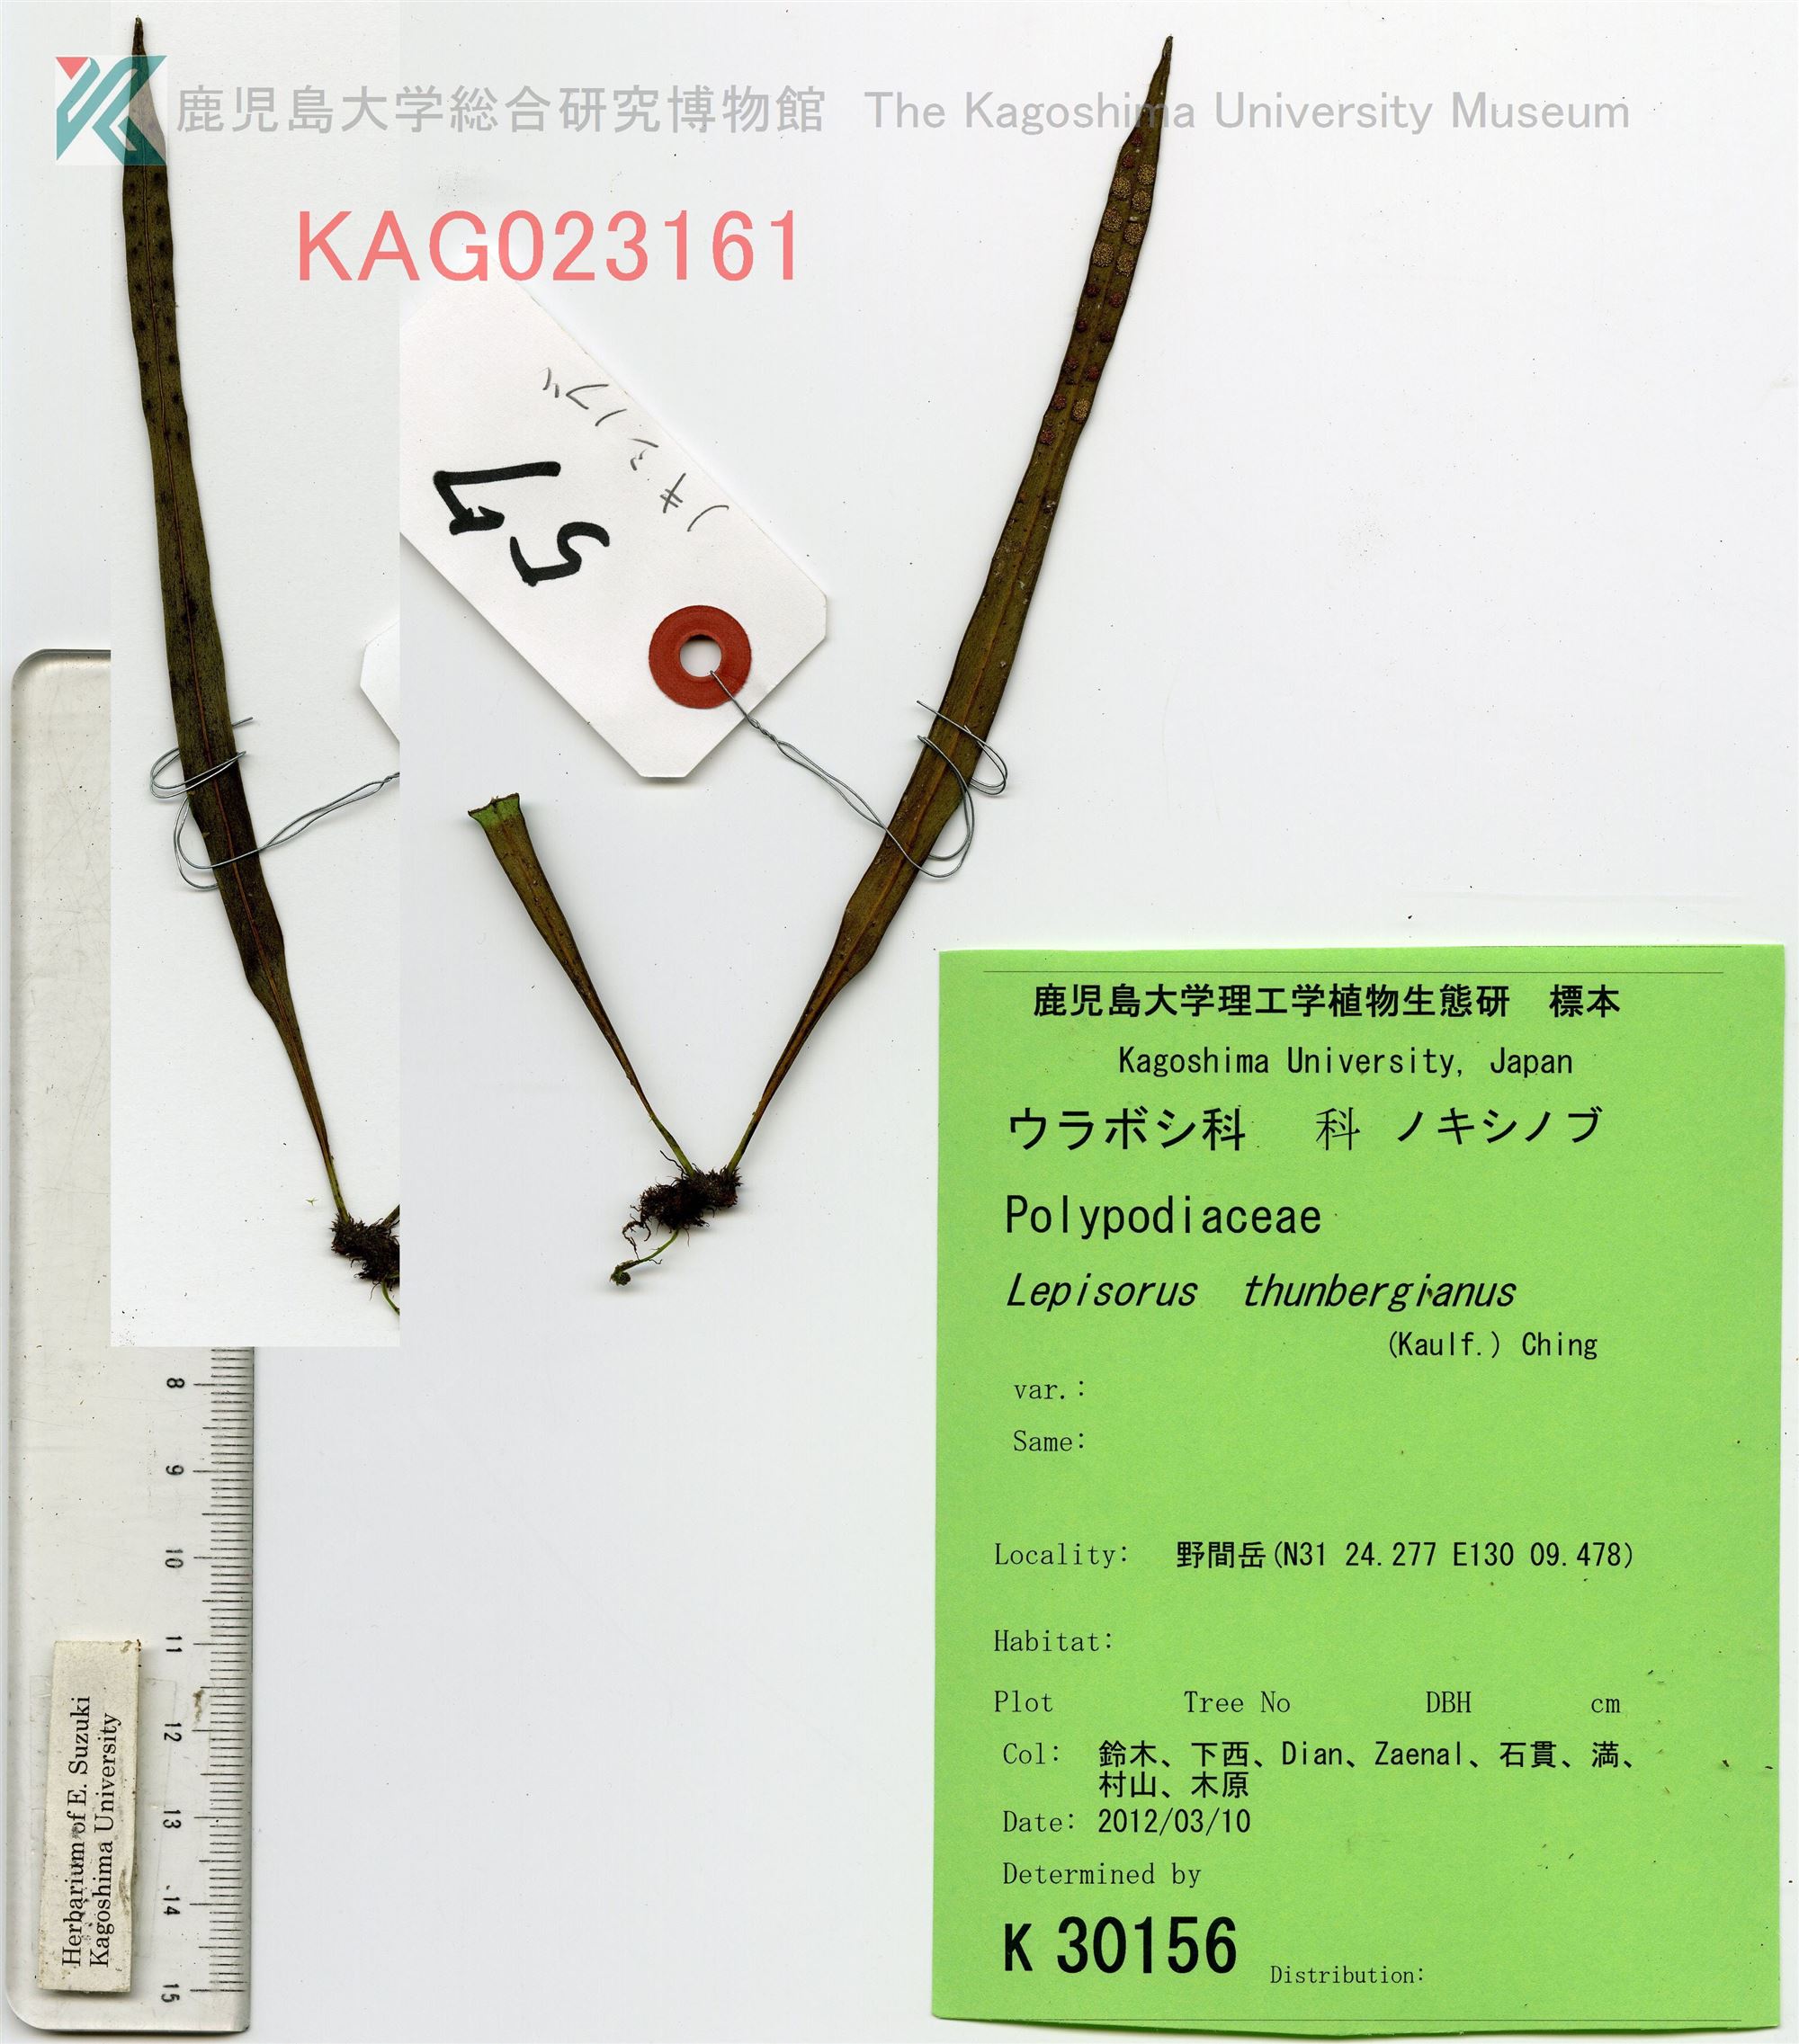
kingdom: Plantae
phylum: Tracheophyta
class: Polypodiopsida
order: Polypodiales
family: Polypodiaceae
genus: Lepisorus
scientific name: Lepisorus thunbergianus
